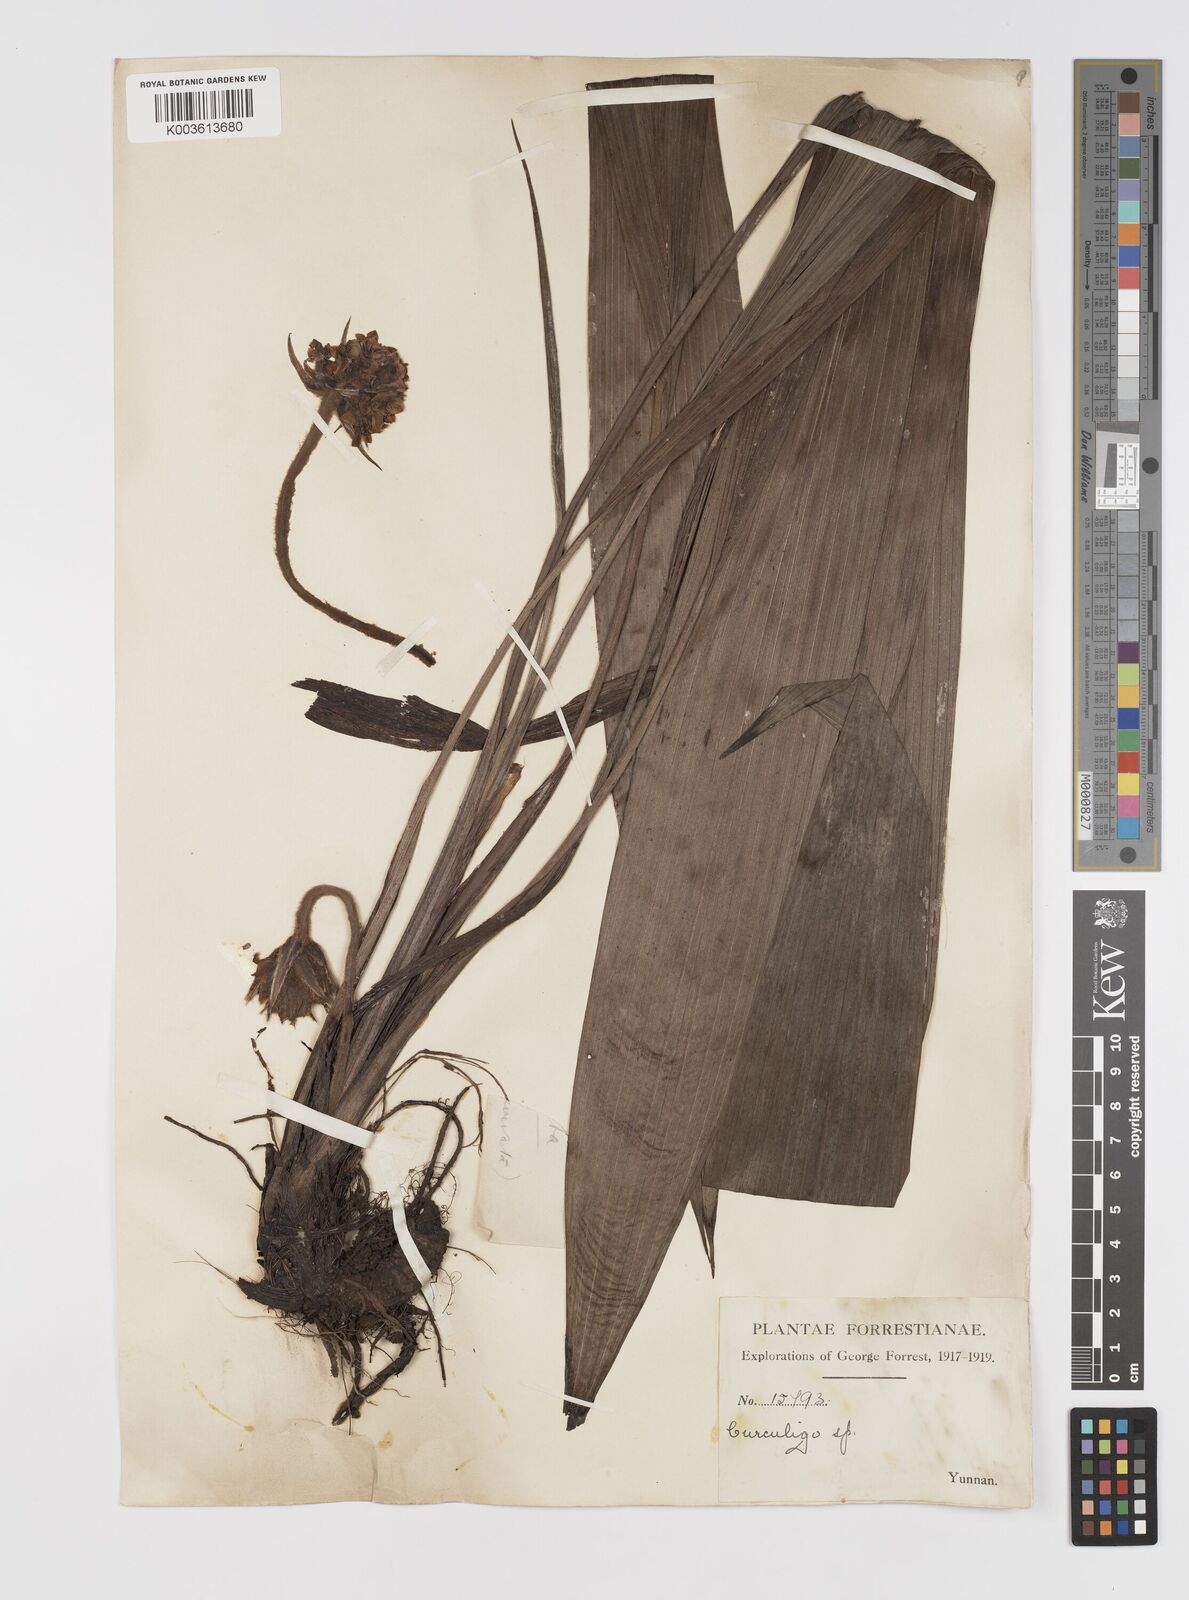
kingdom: Plantae
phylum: Tracheophyta
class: Liliopsida
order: Asparagales
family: Hypoxidaceae
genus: Curculigo
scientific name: Curculigo capitulata
